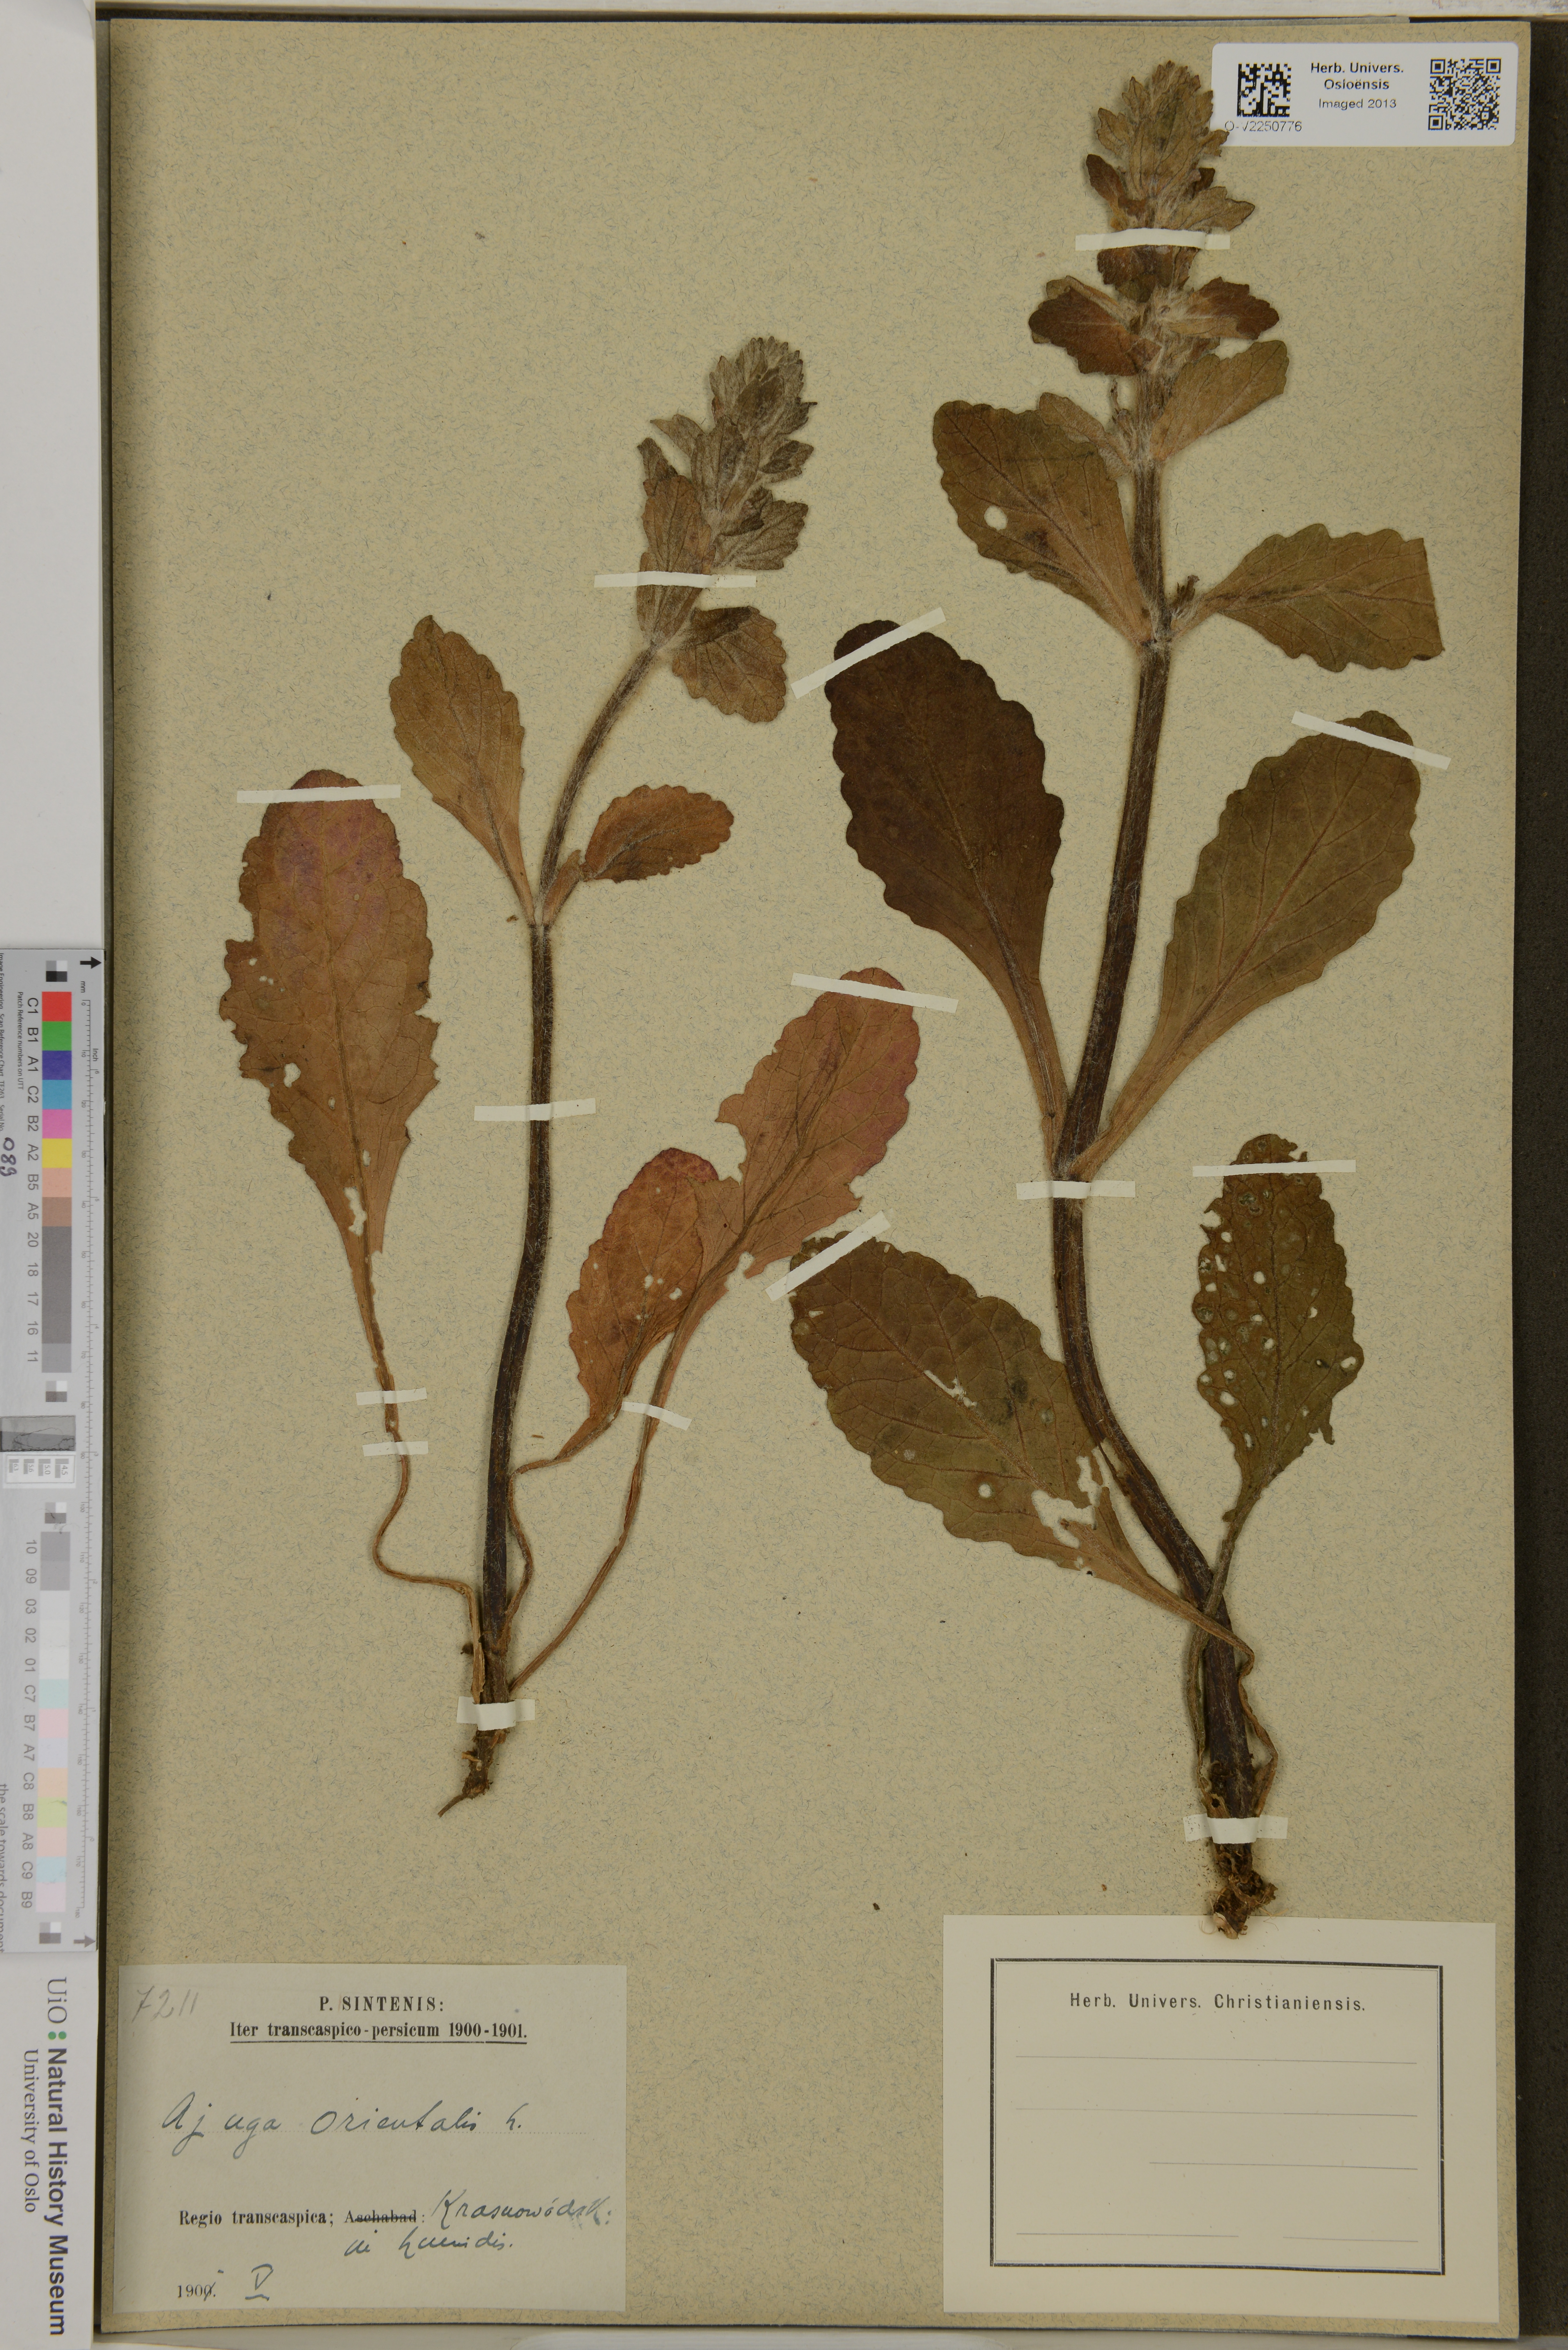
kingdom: Plantae
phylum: Tracheophyta
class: Magnoliopsida
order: Lamiales
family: Lamiaceae
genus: Ajuga
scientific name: Ajuga orientalis
